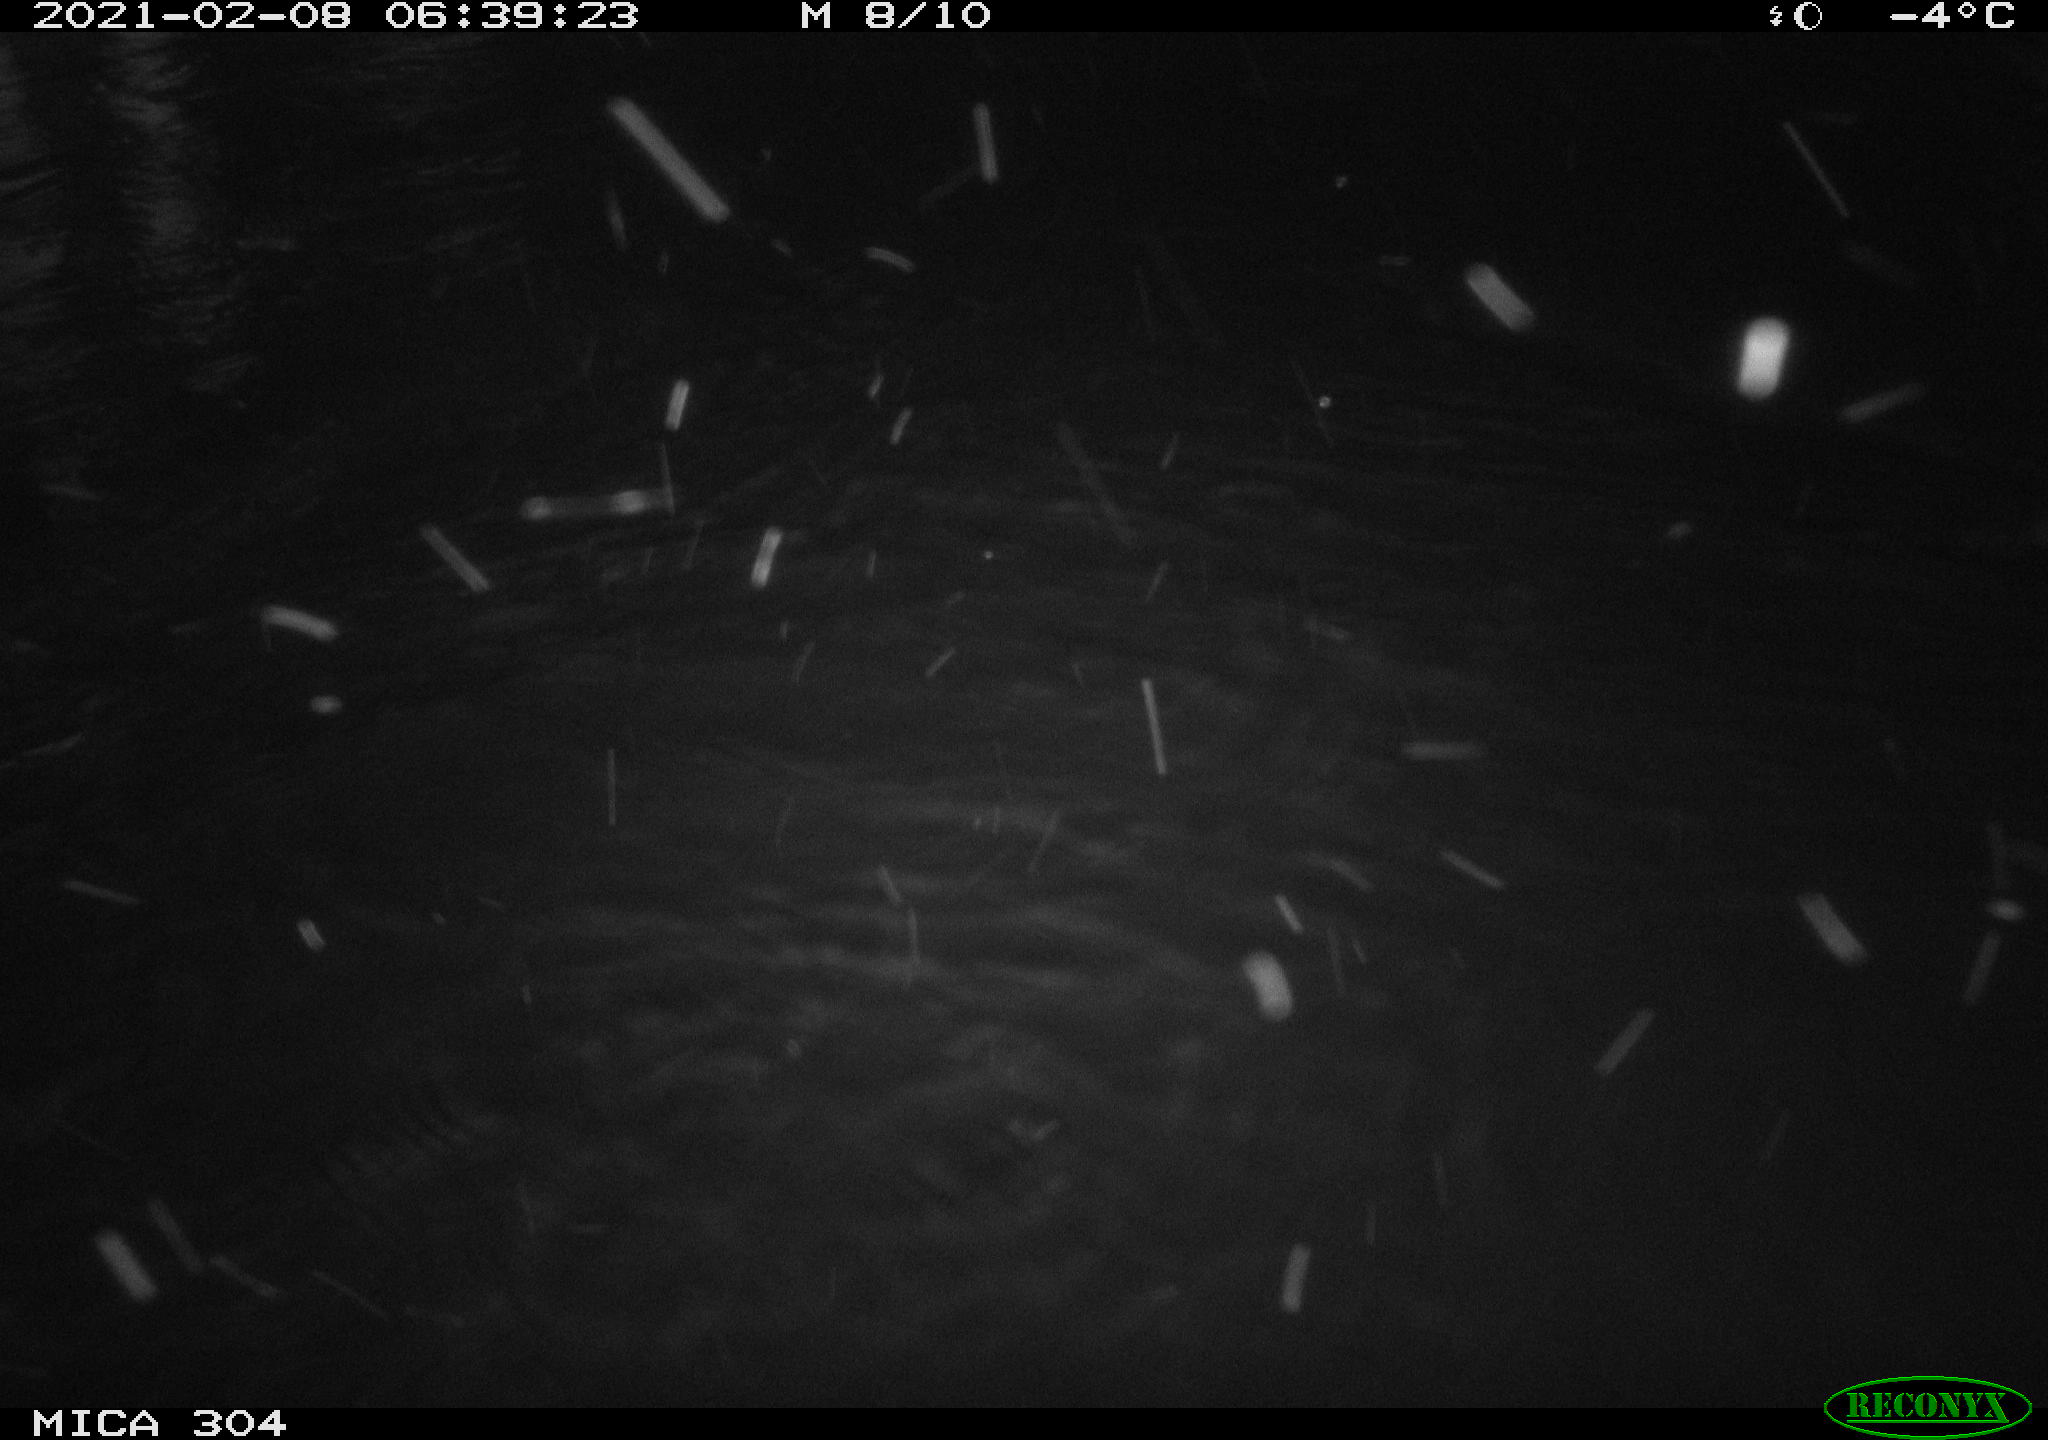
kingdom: Animalia
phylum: Chordata
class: Mammalia
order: Rodentia
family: Cricetidae
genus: Ondatra
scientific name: Ondatra zibethicus
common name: Muskrat
